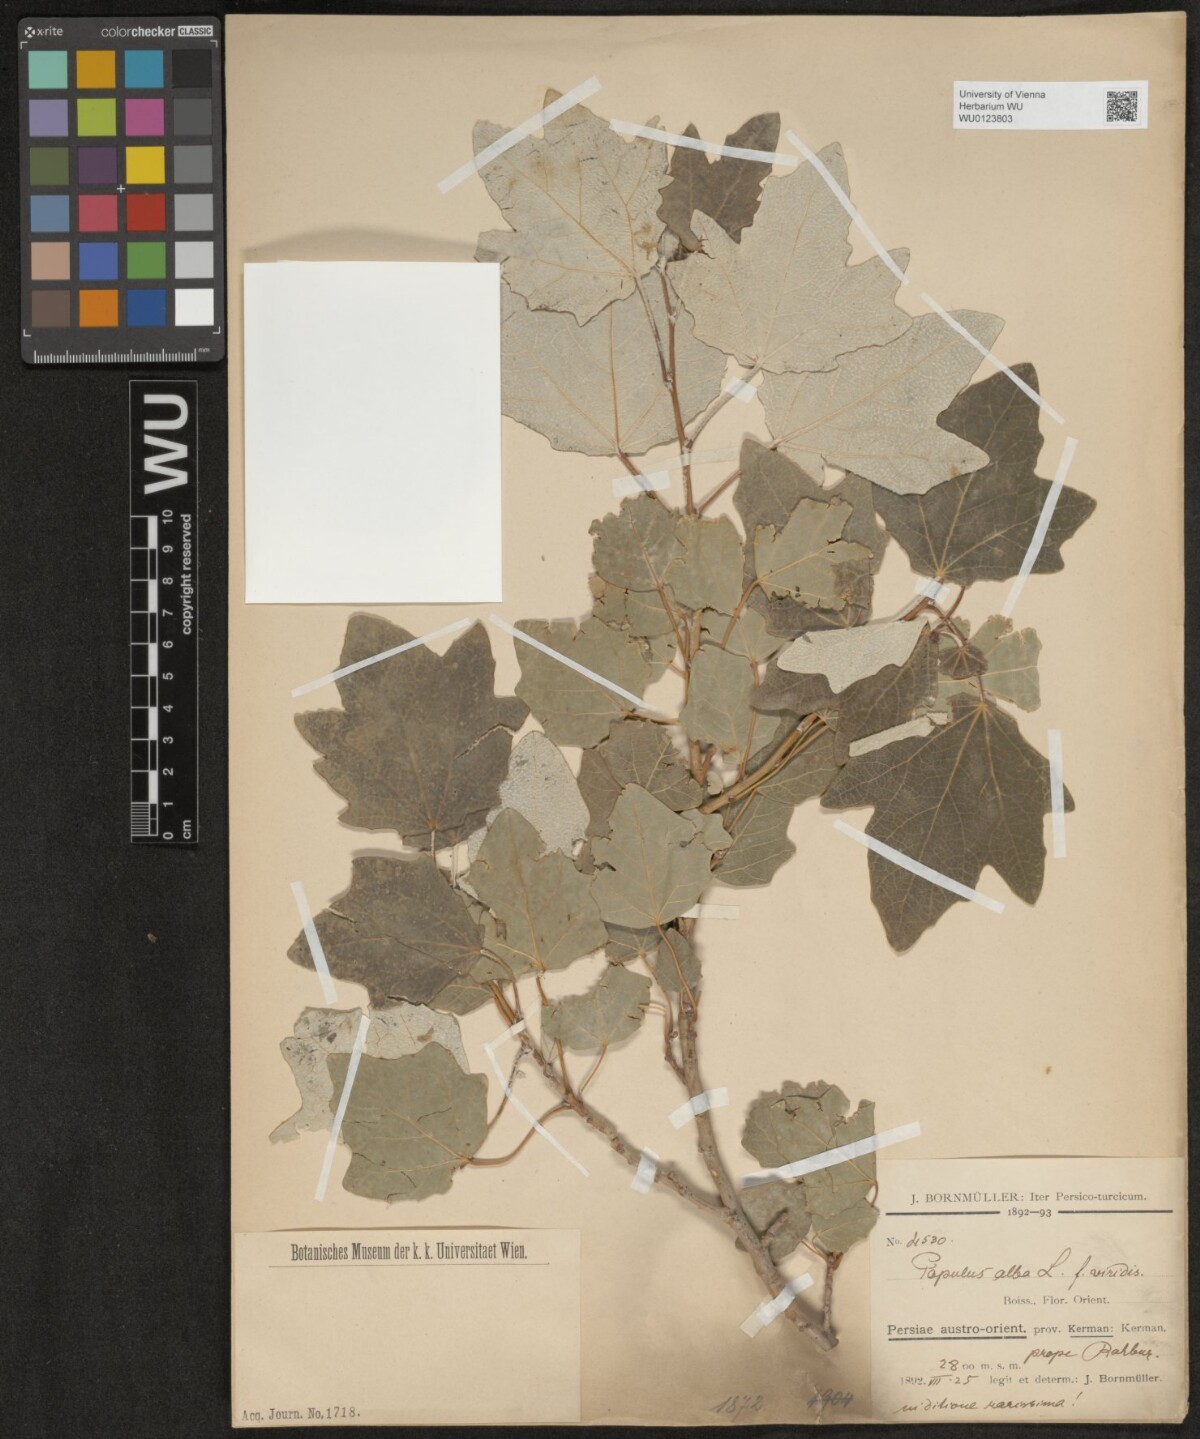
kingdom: Plantae
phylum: Tracheophyta
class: Magnoliopsida
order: Malpighiales
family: Salicaceae
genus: Populus
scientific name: Populus alba
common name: White poplar
